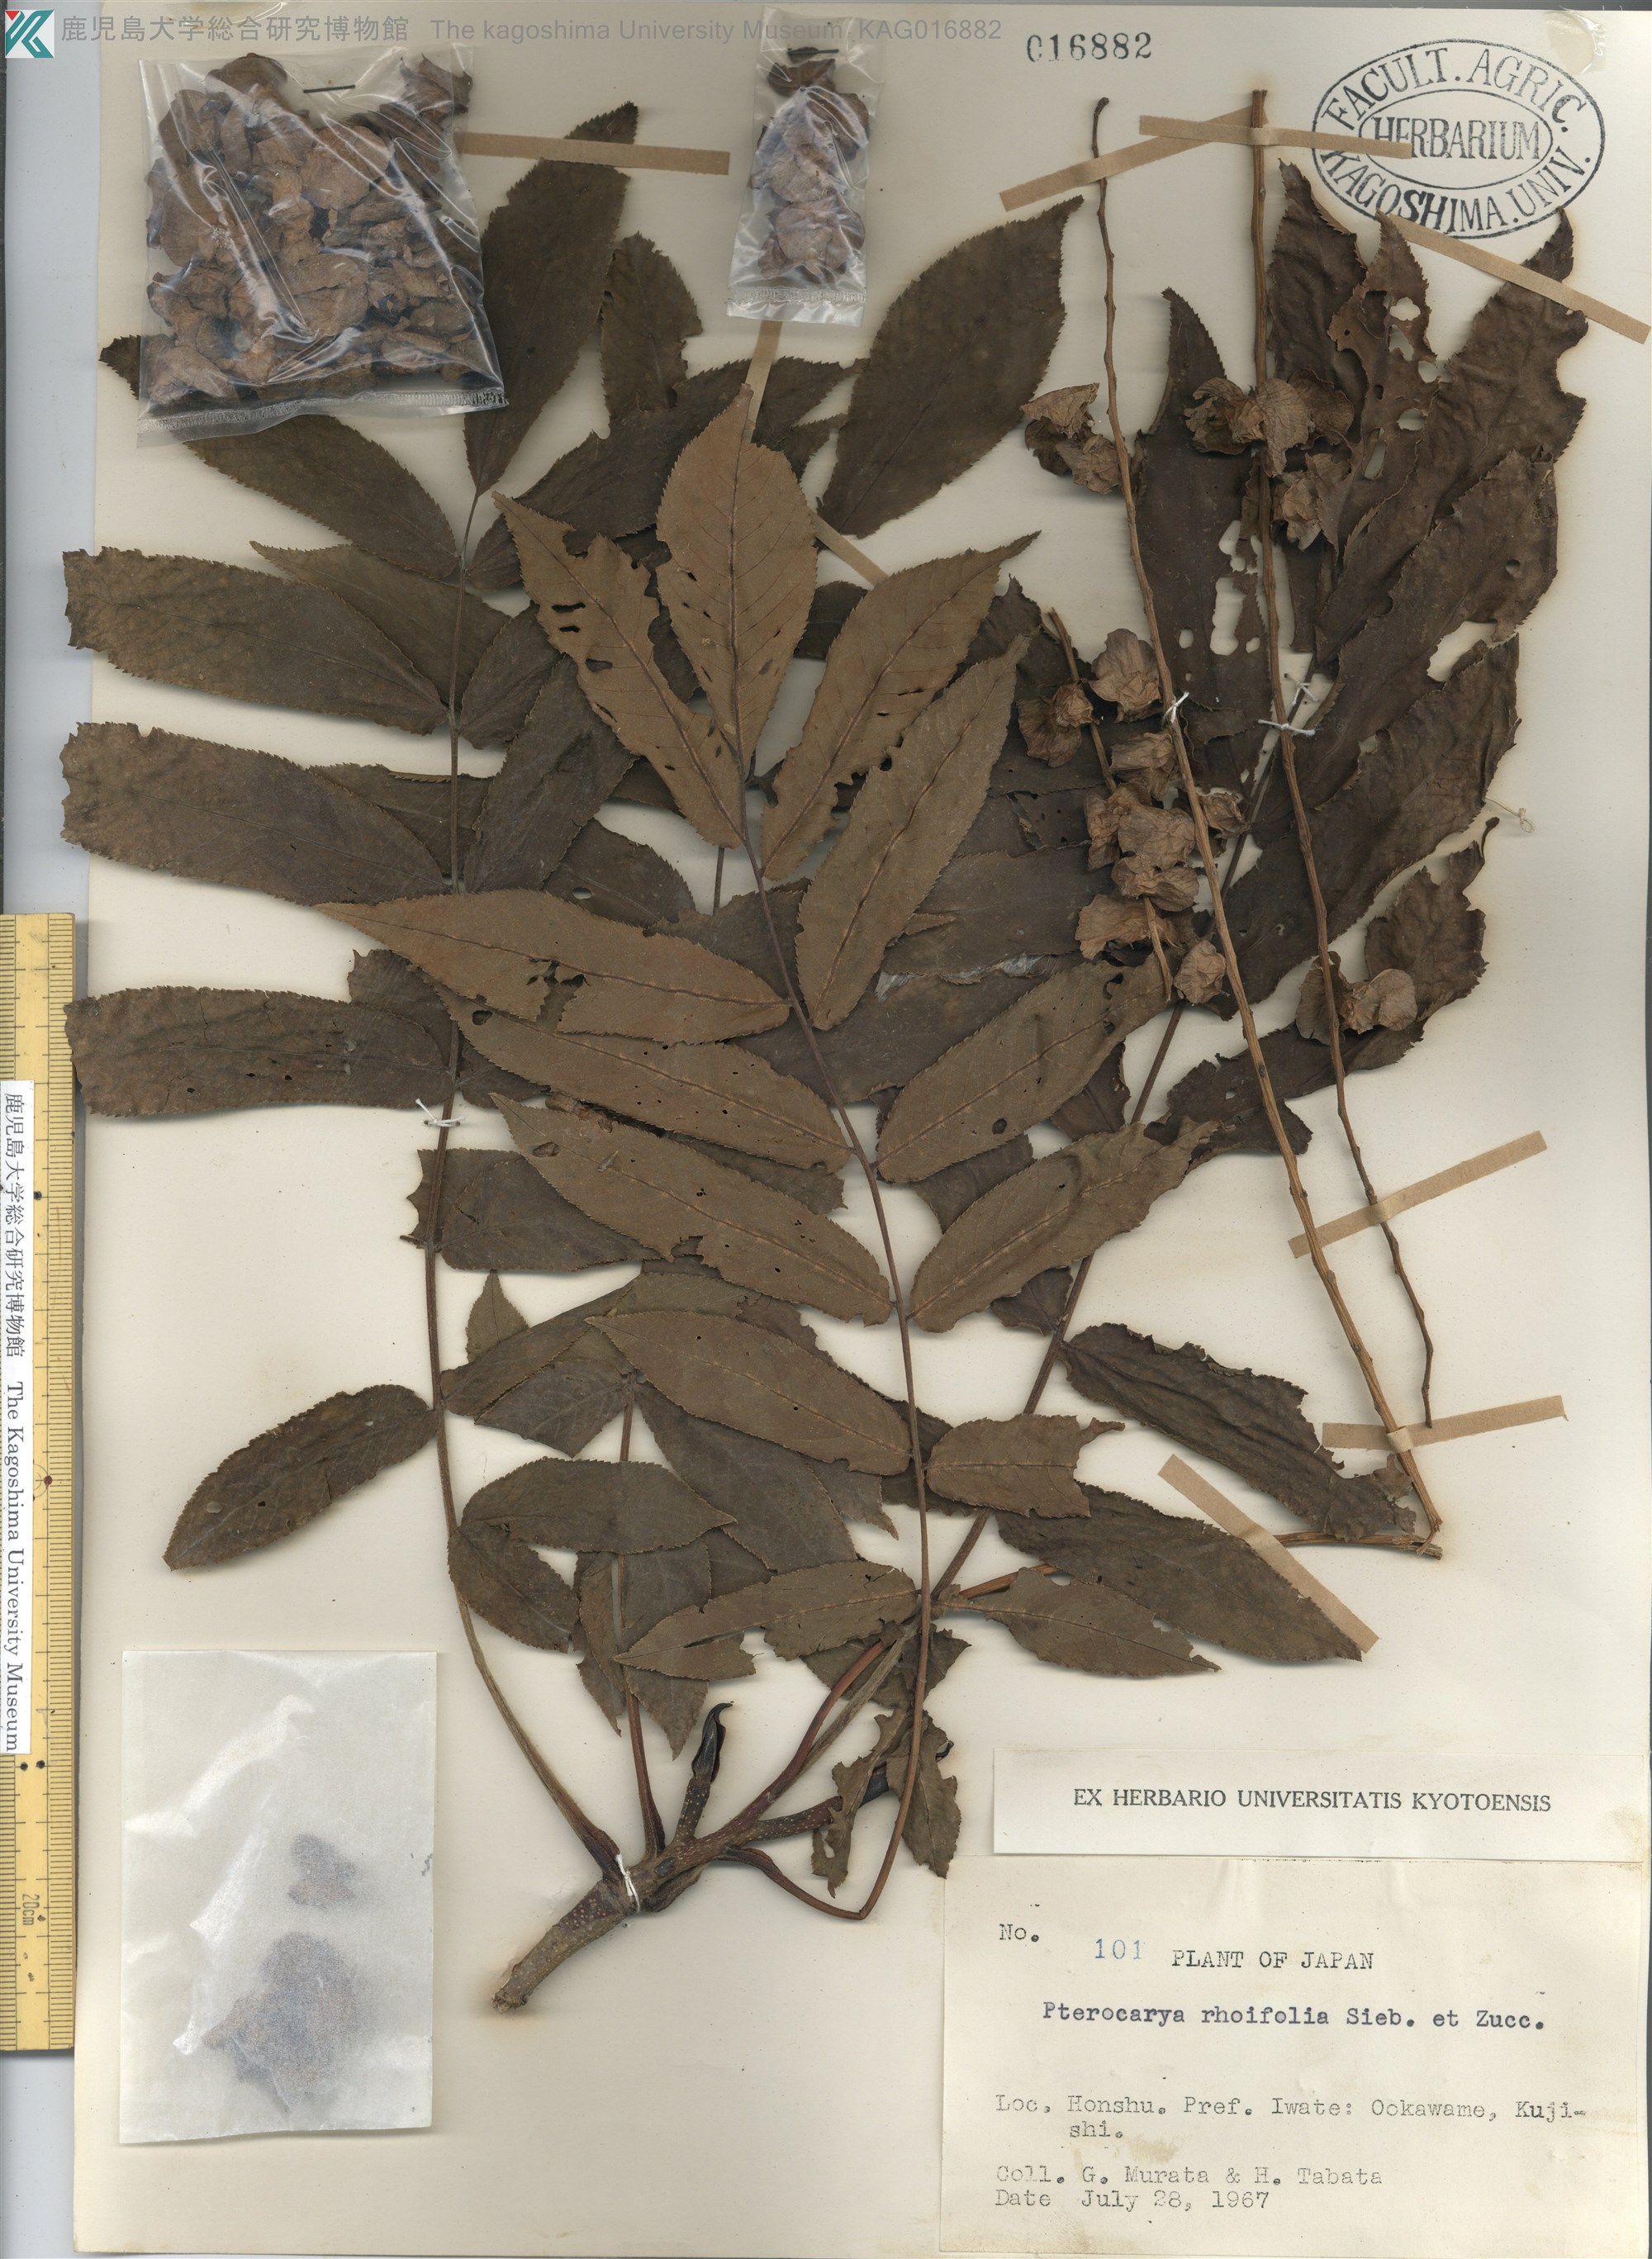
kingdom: Plantae
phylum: Tracheophyta
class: Magnoliopsida
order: Fagales
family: Juglandaceae
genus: Pterocarya
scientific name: Pterocarya rhoifolia
